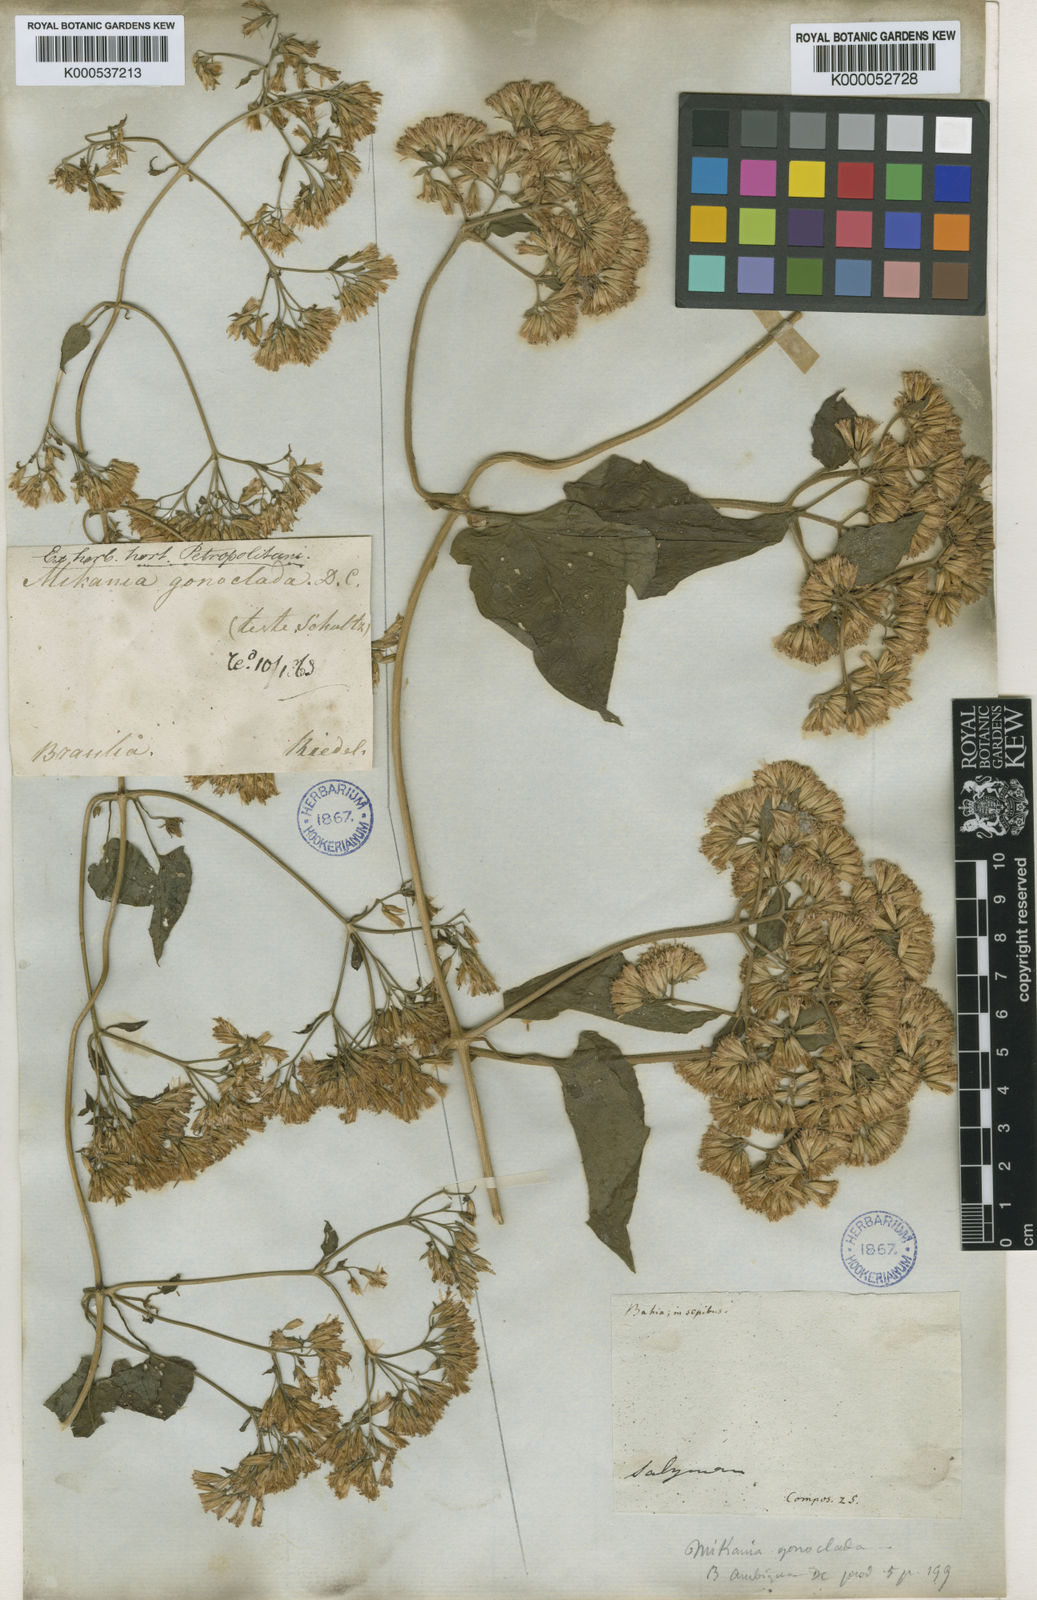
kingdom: Plantae
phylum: Tracheophyta
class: Magnoliopsida
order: Asterales
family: Asteraceae
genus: Mikania
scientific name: Mikania cordifolia
